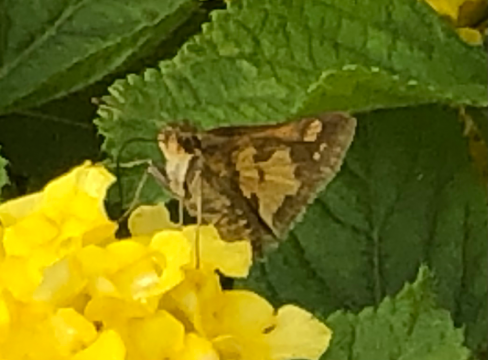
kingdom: Animalia
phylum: Arthropoda
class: Insecta
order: Lepidoptera
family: Hesperiidae
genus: Polites
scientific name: Polites coras
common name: Peck's Skipper
